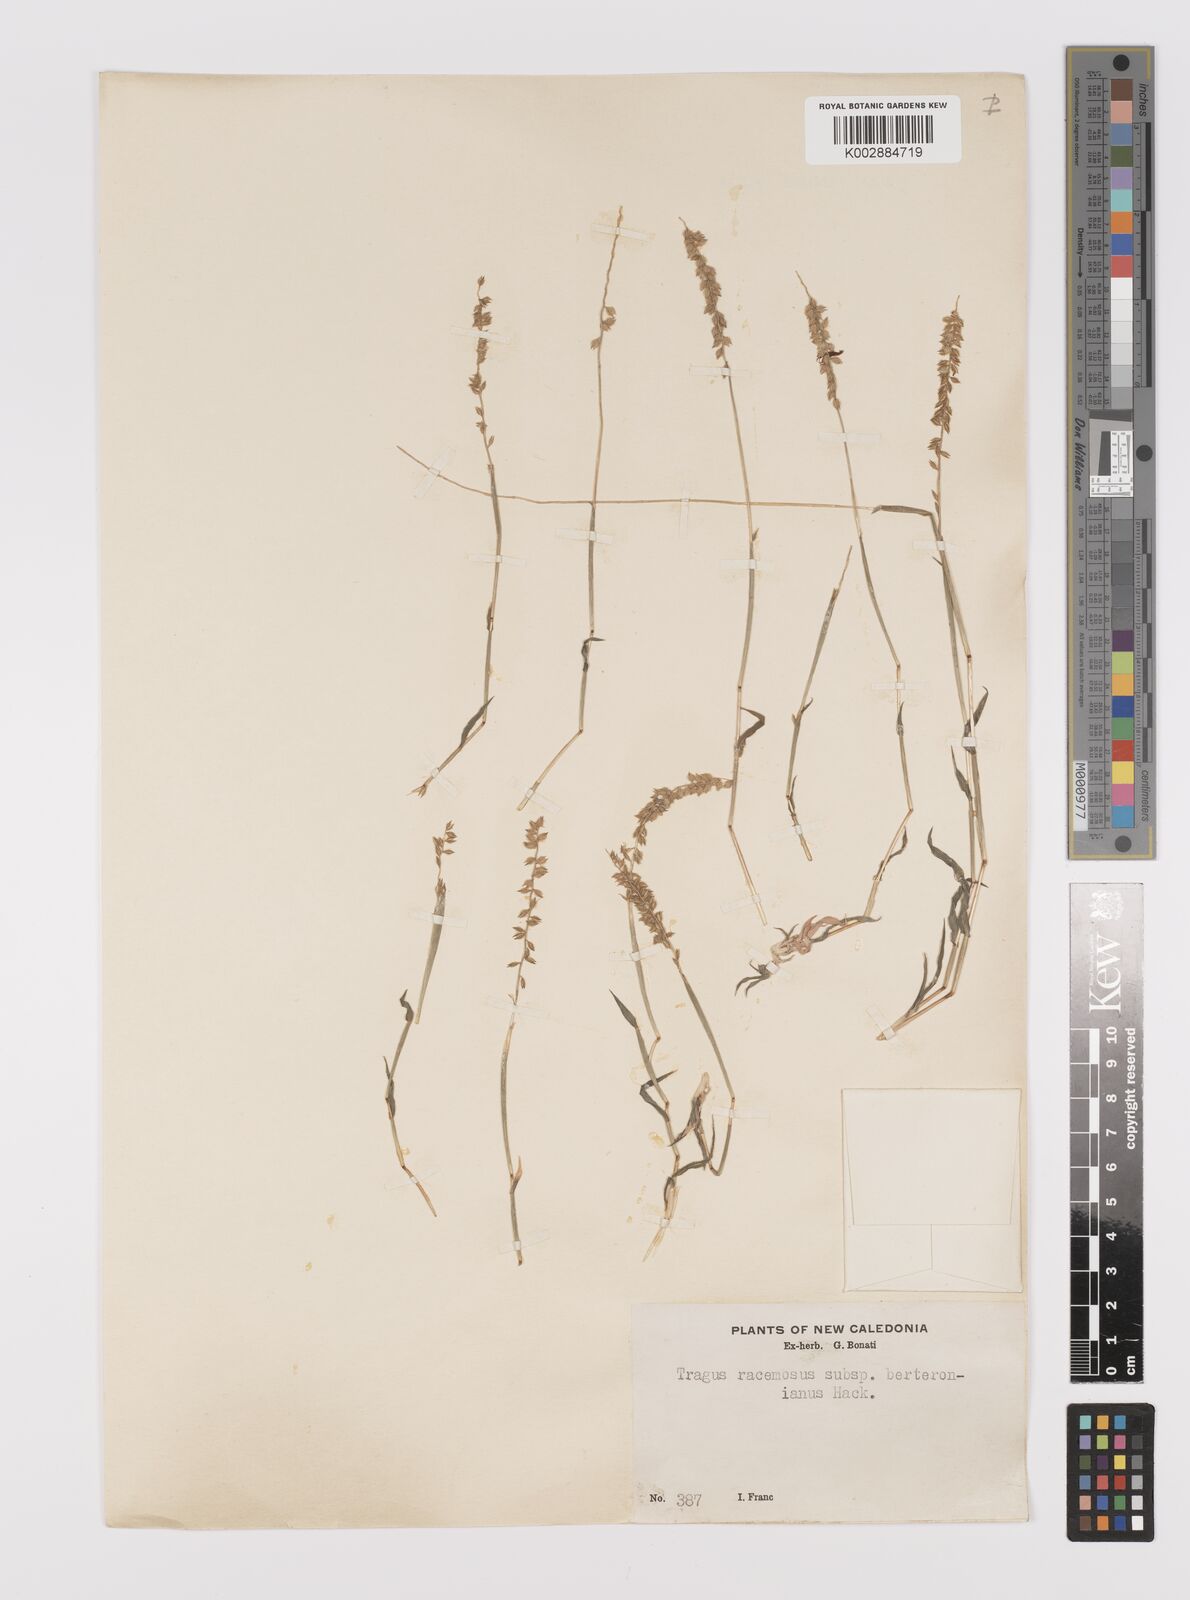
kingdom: Plantae
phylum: Tracheophyta
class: Liliopsida
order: Poales
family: Poaceae
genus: Tragus
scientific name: Tragus australianus
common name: Australian bur-grass
